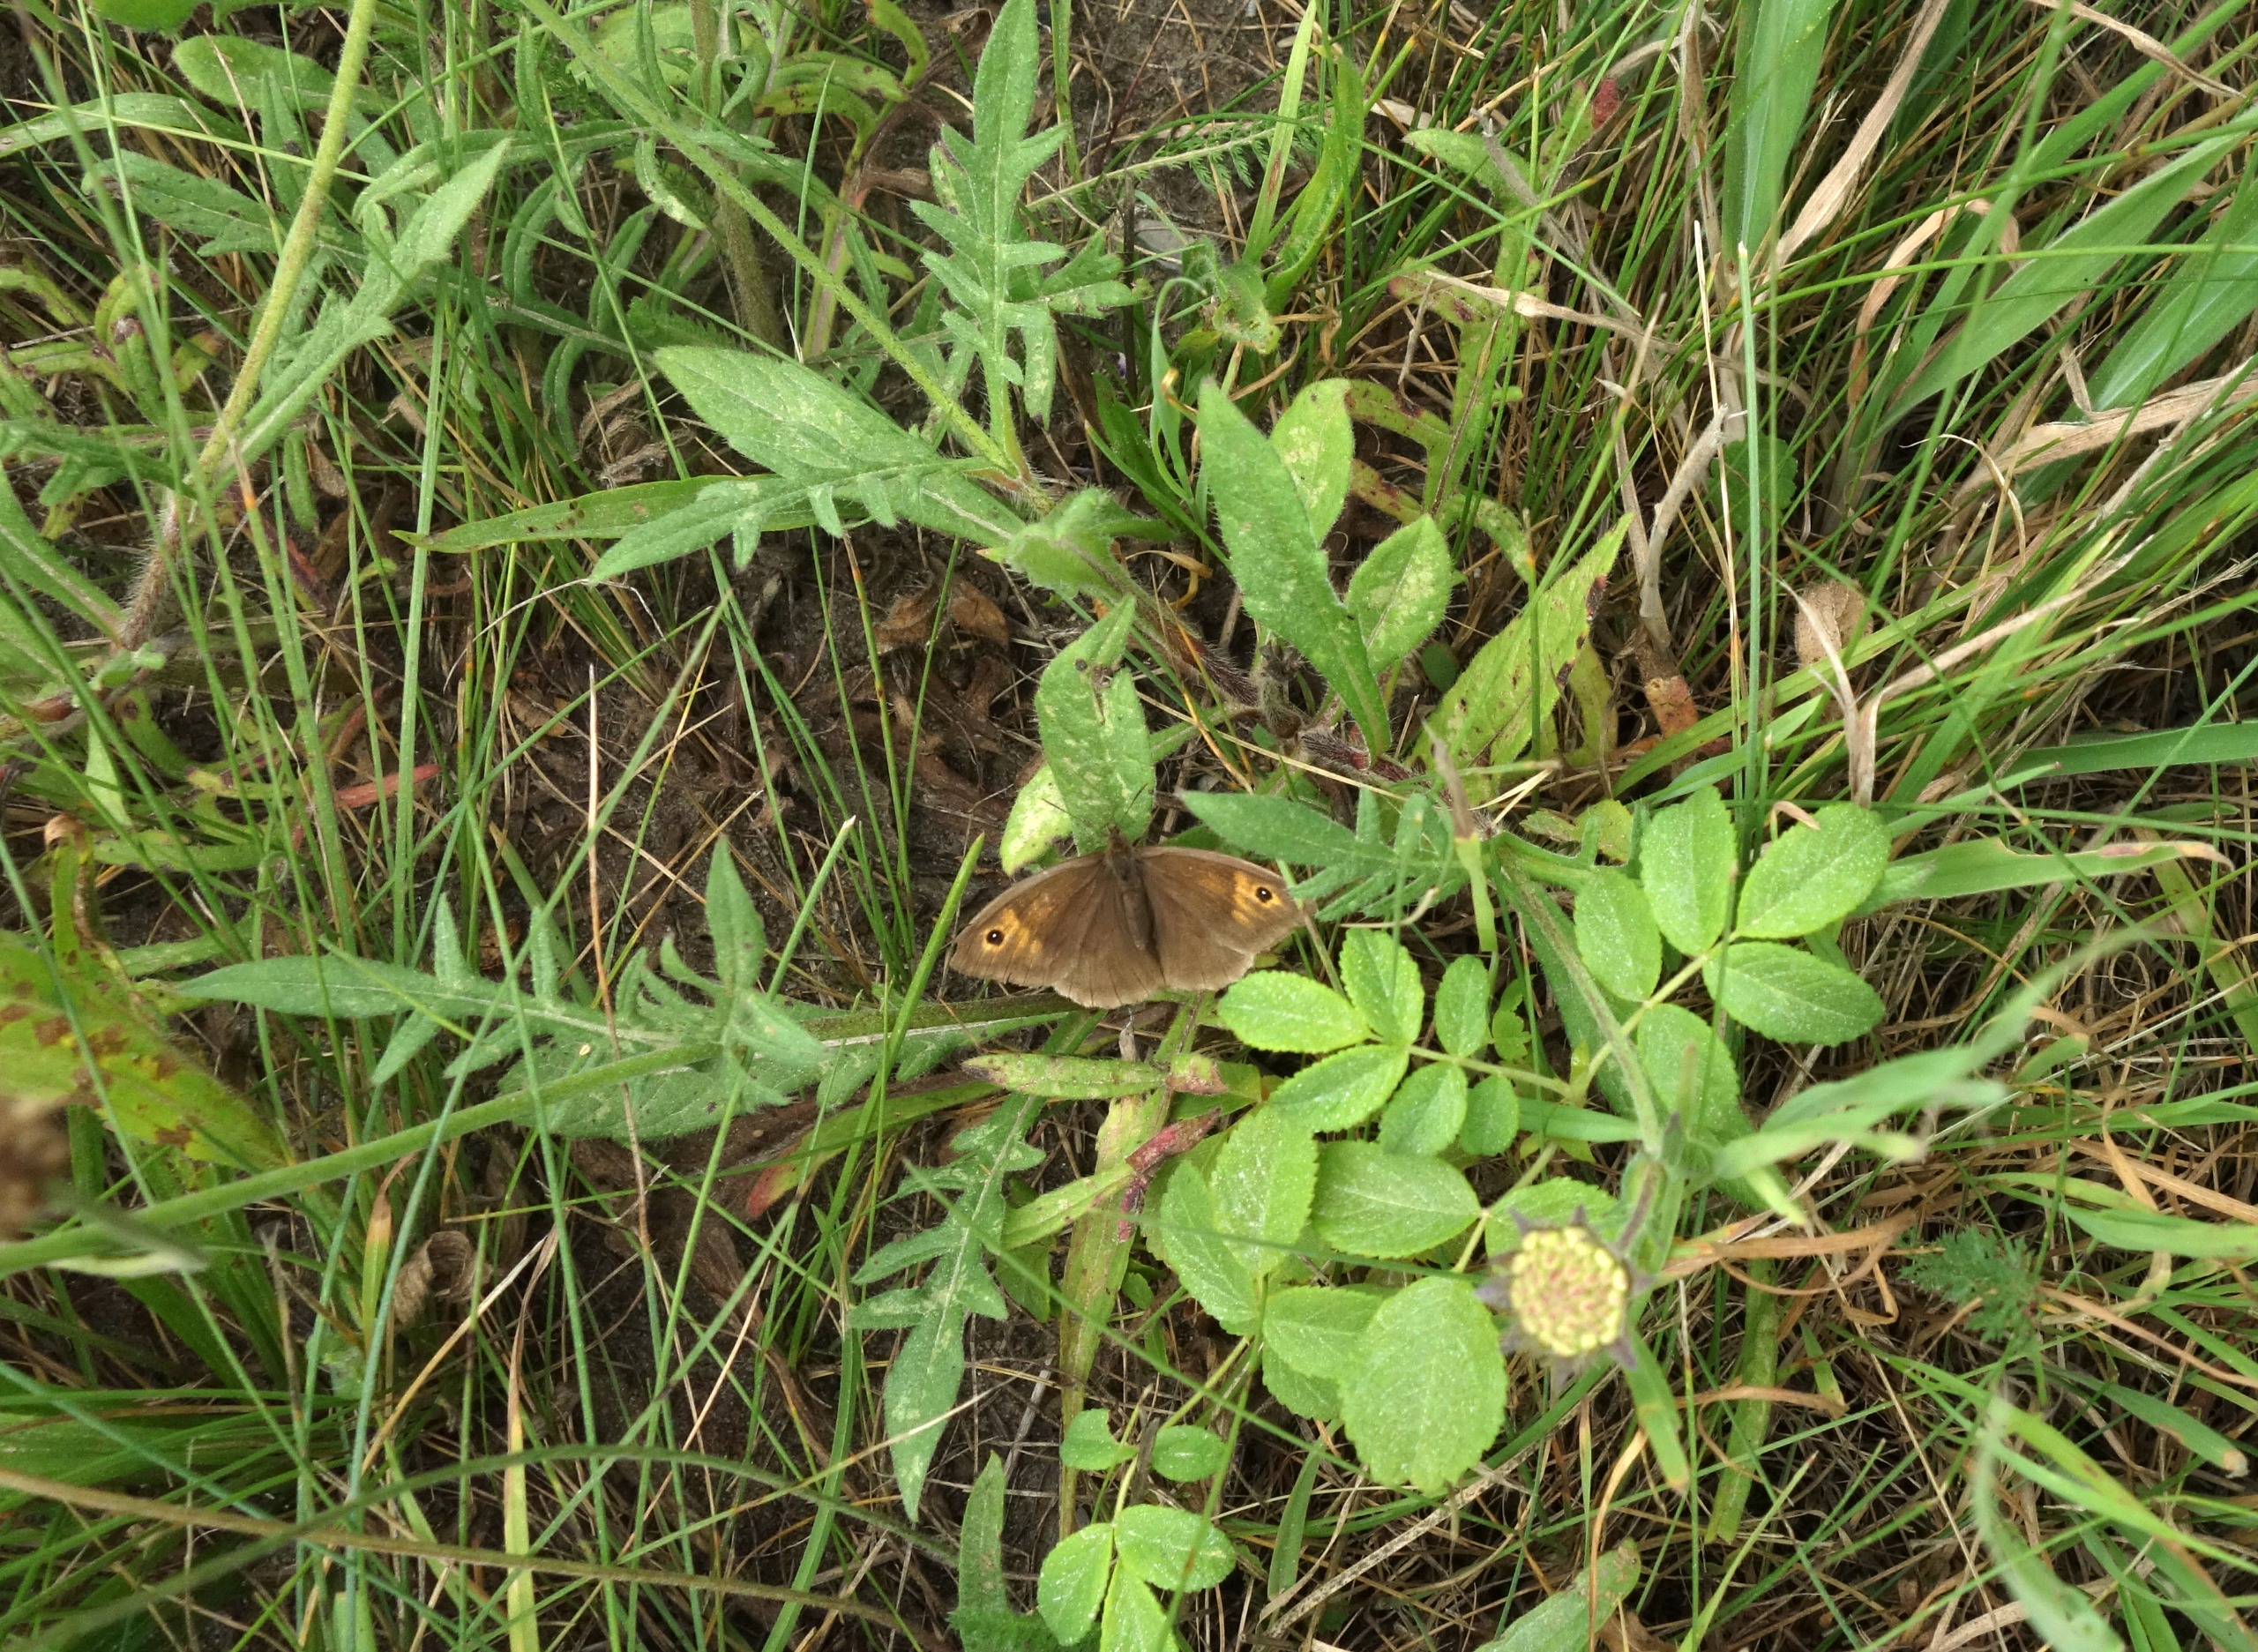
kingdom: Animalia
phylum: Arthropoda
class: Insecta
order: Lepidoptera
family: Nymphalidae
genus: Maniola
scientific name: Maniola jurtina
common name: Græsrandøje
